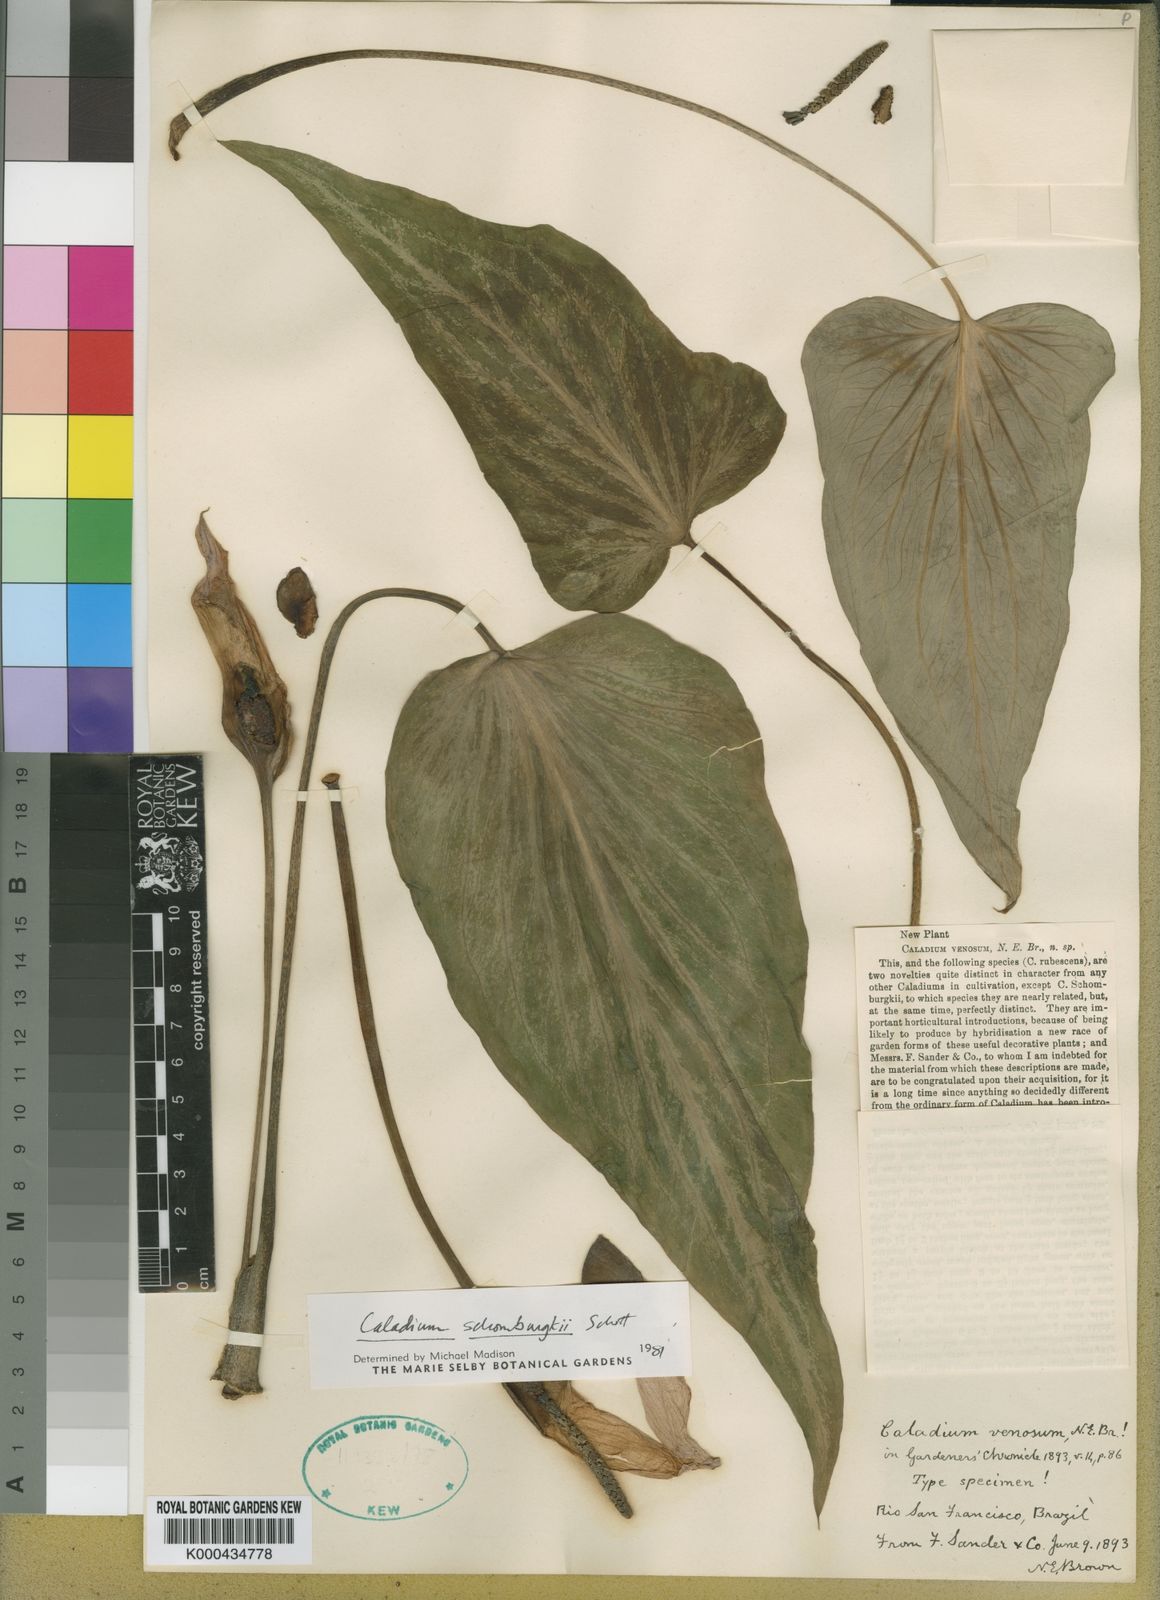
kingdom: Plantae
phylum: Tracheophyta
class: Liliopsida
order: Alismatales
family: Araceae
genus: Caladium
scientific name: Caladium schomburgkii
